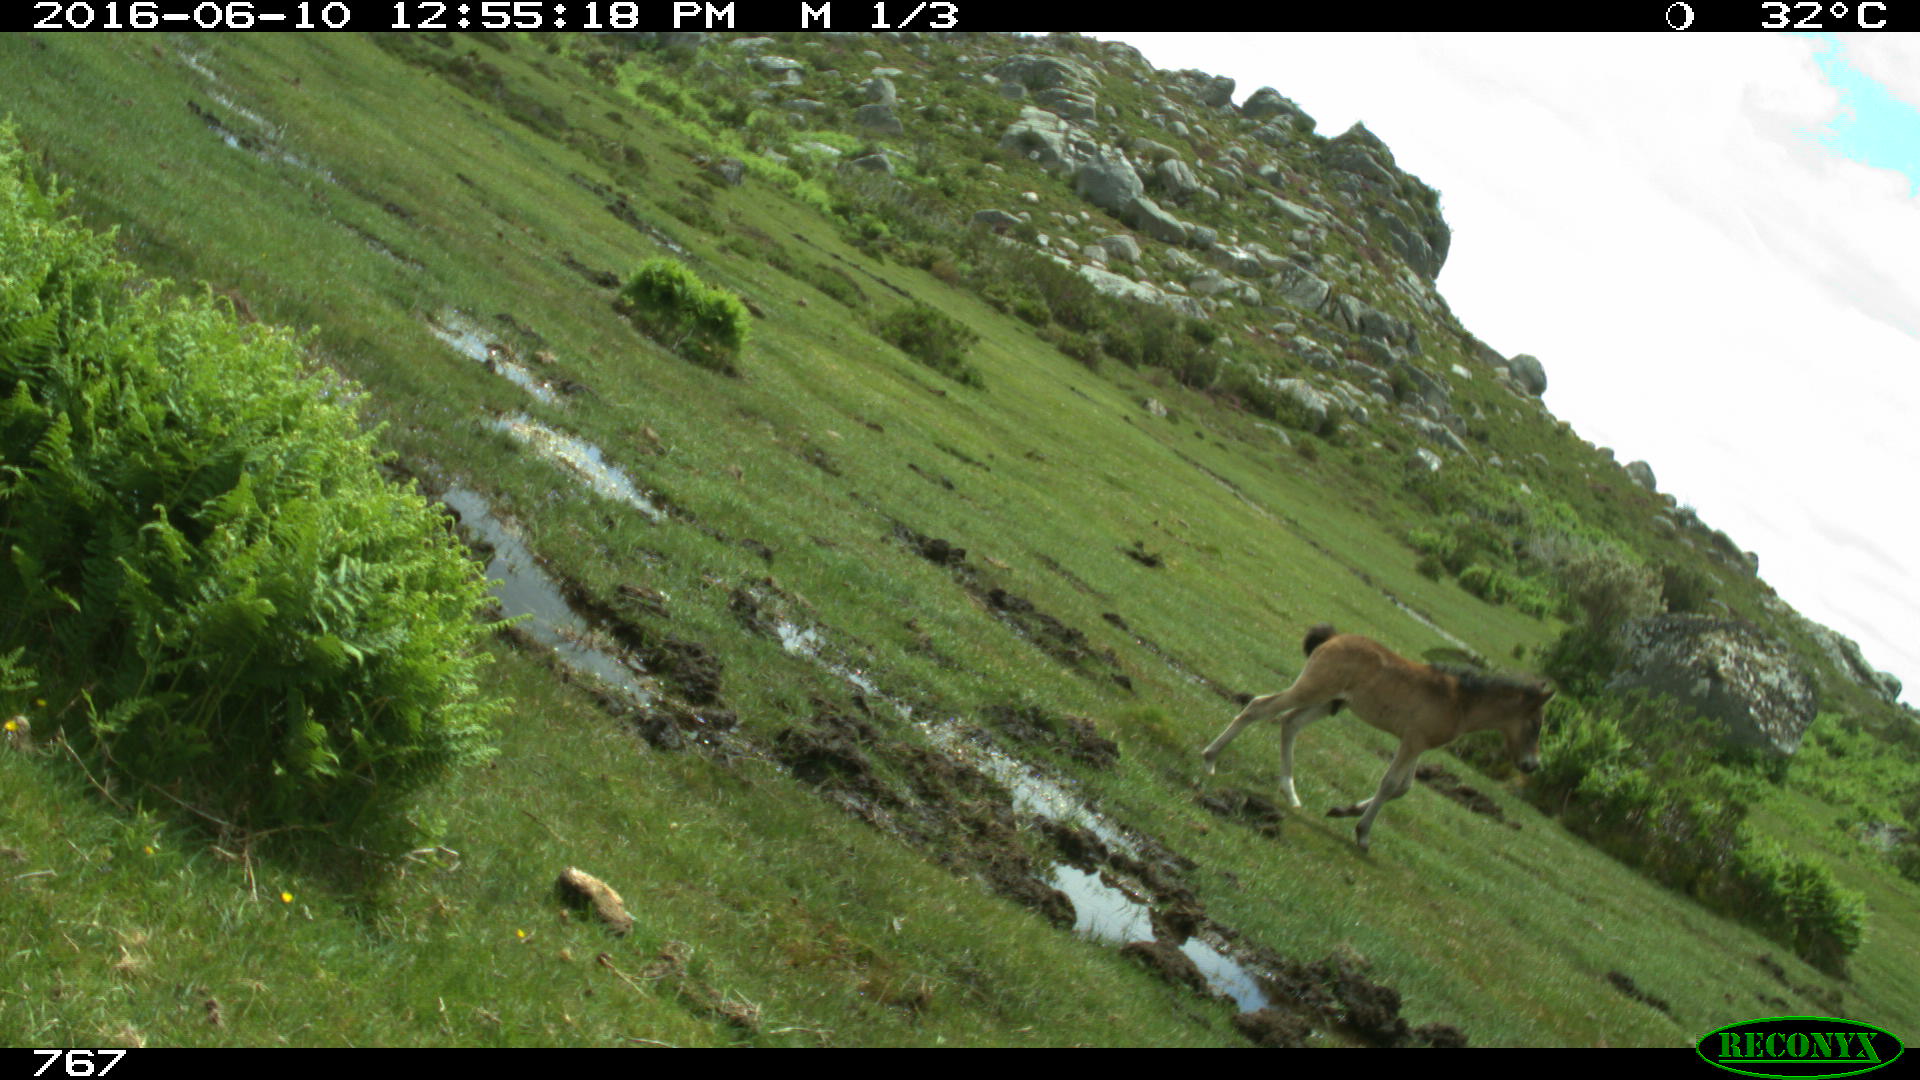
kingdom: Animalia
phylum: Chordata
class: Mammalia
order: Perissodactyla
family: Equidae
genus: Equus
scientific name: Equus caballus
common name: Horse
